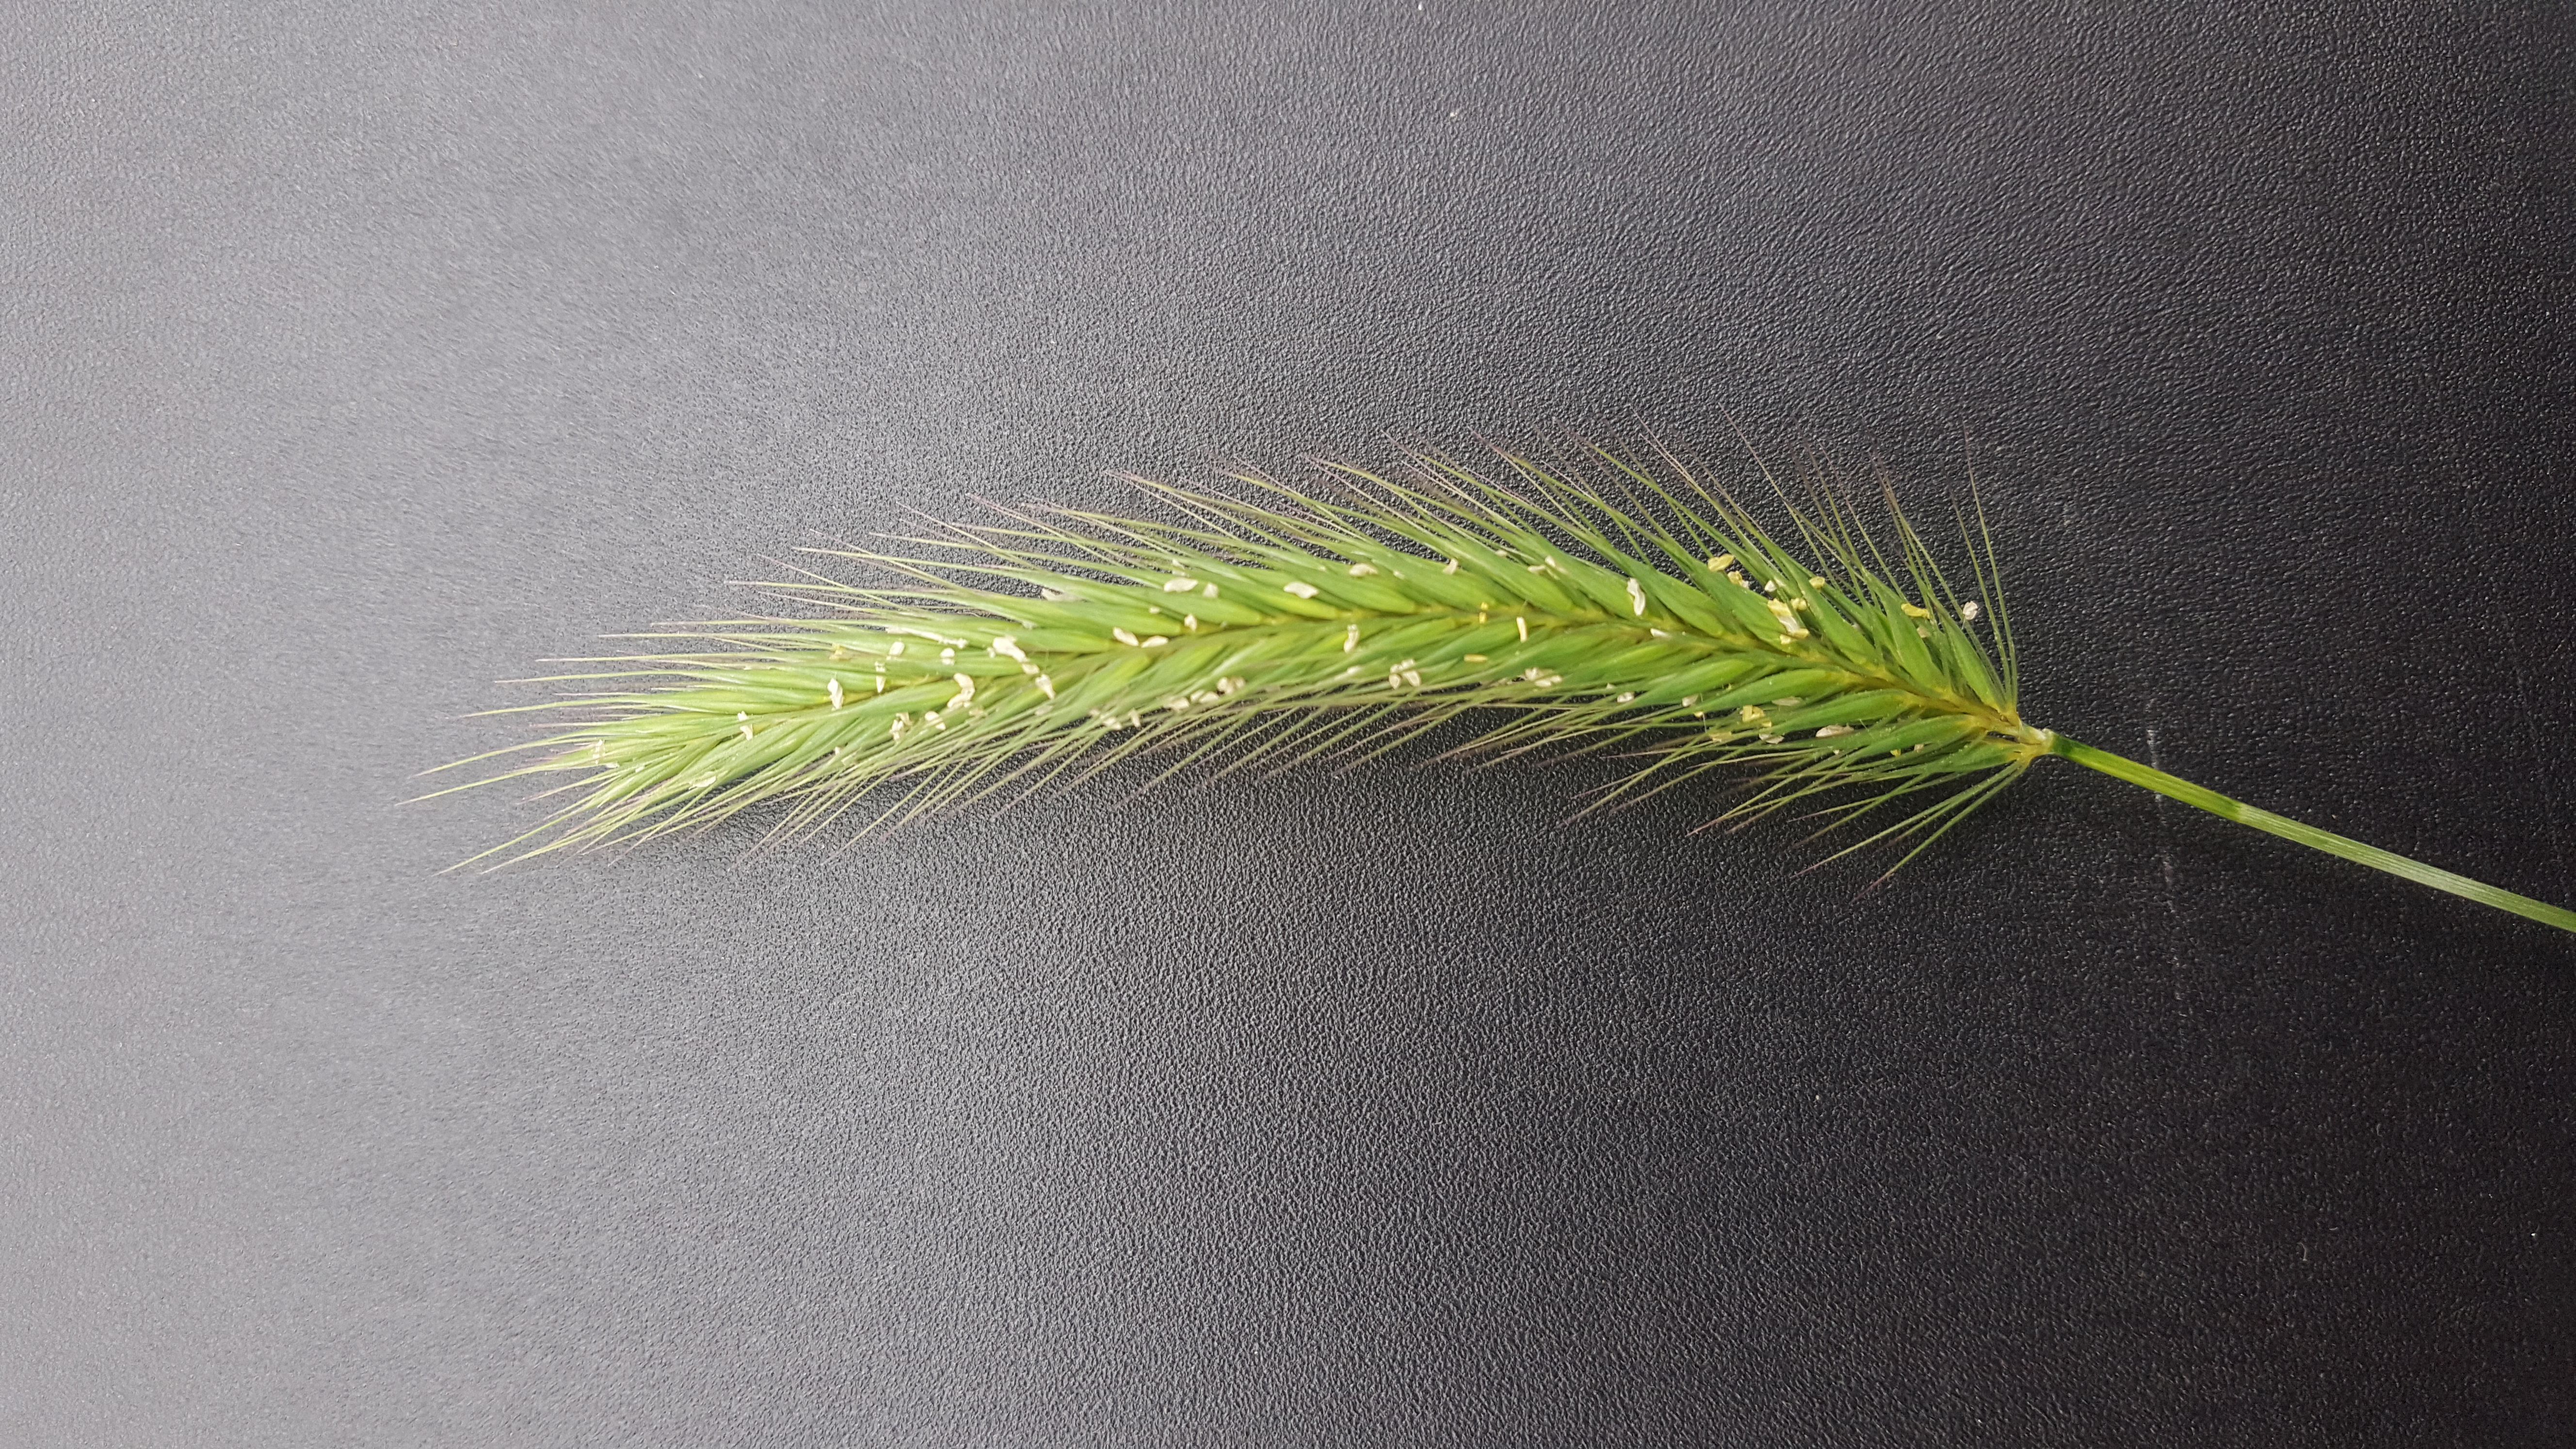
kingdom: Plantae
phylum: Tracheophyta
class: Liliopsida
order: Poales
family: Poaceae
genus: Hordeum
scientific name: Hordeum brachyantherum
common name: Meadow barley
